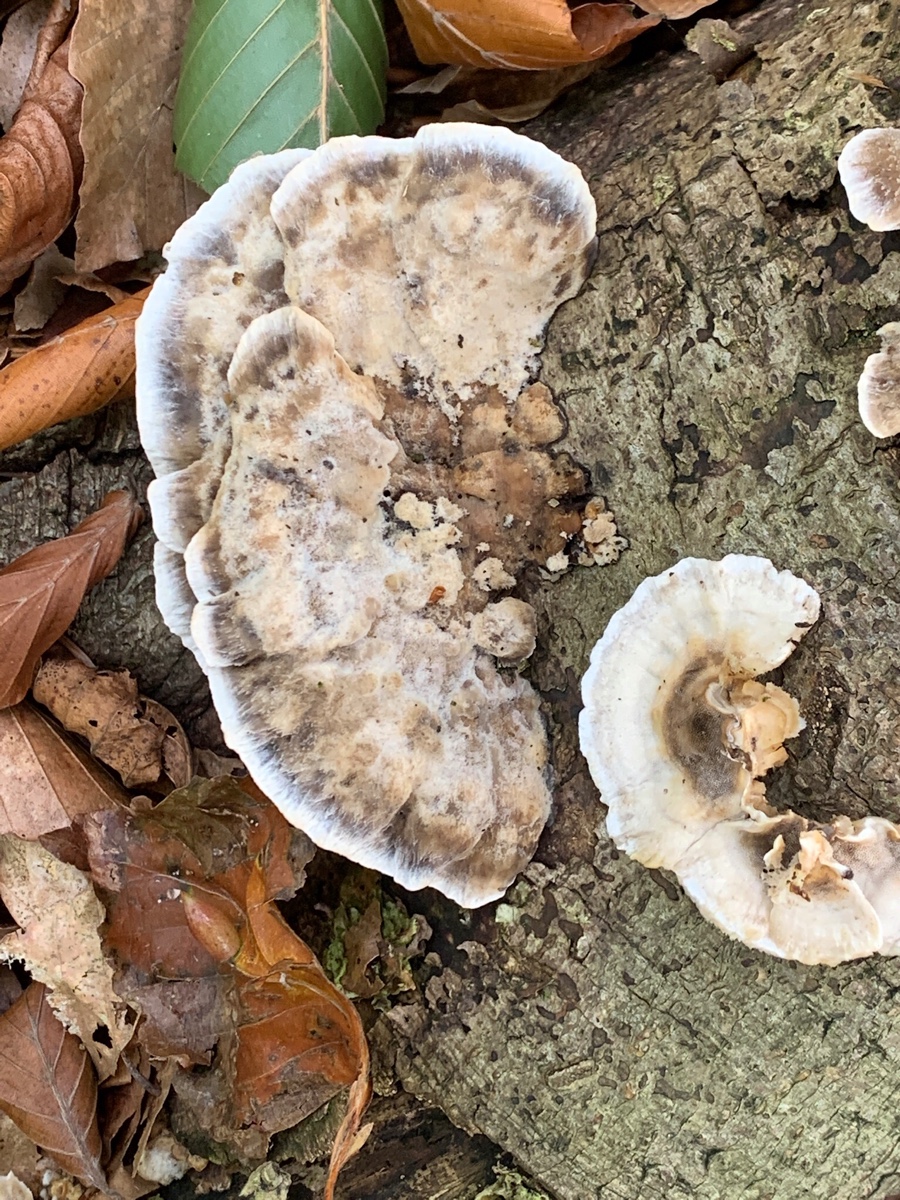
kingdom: Fungi
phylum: Basidiomycota
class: Agaricomycetes
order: Polyporales
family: Phanerochaetaceae
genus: Bjerkandera
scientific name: Bjerkandera adusta
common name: sveden sodporesvamp
